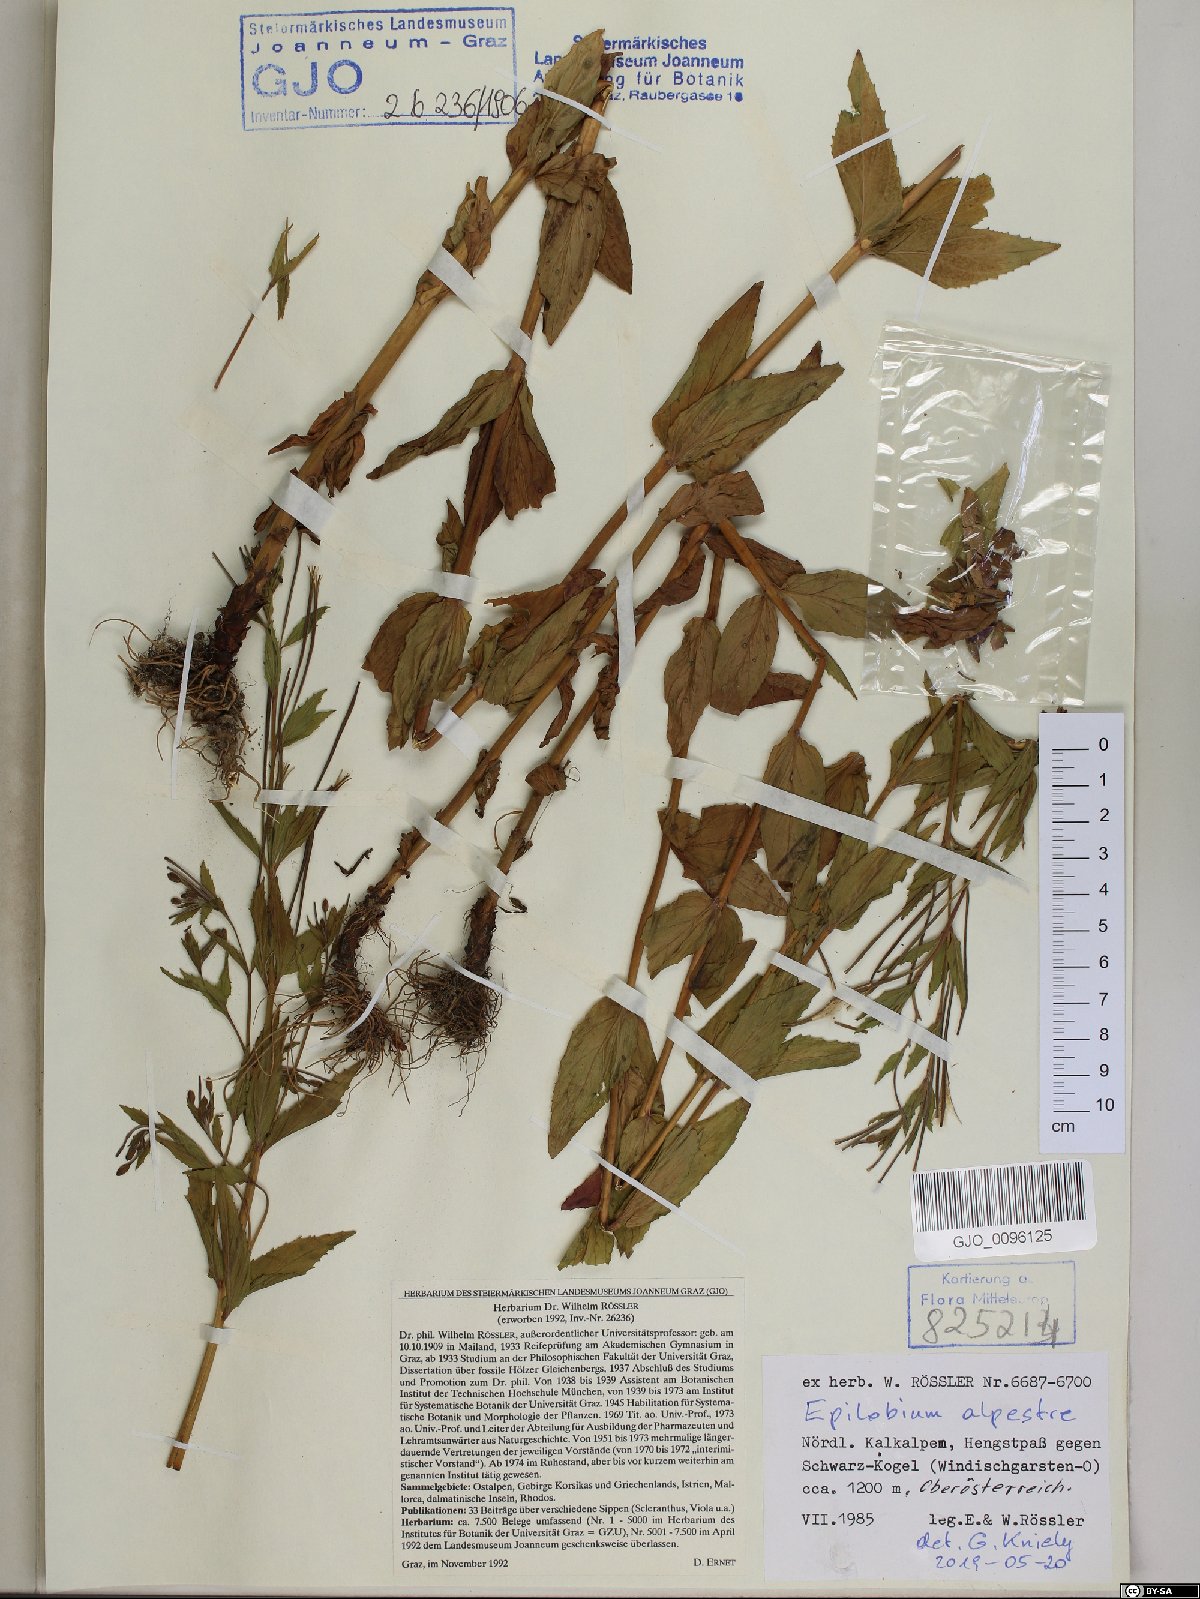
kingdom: Plantae
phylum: Tracheophyta
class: Magnoliopsida
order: Myrtales
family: Onagraceae
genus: Epilobium
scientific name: Epilobium alpestre
